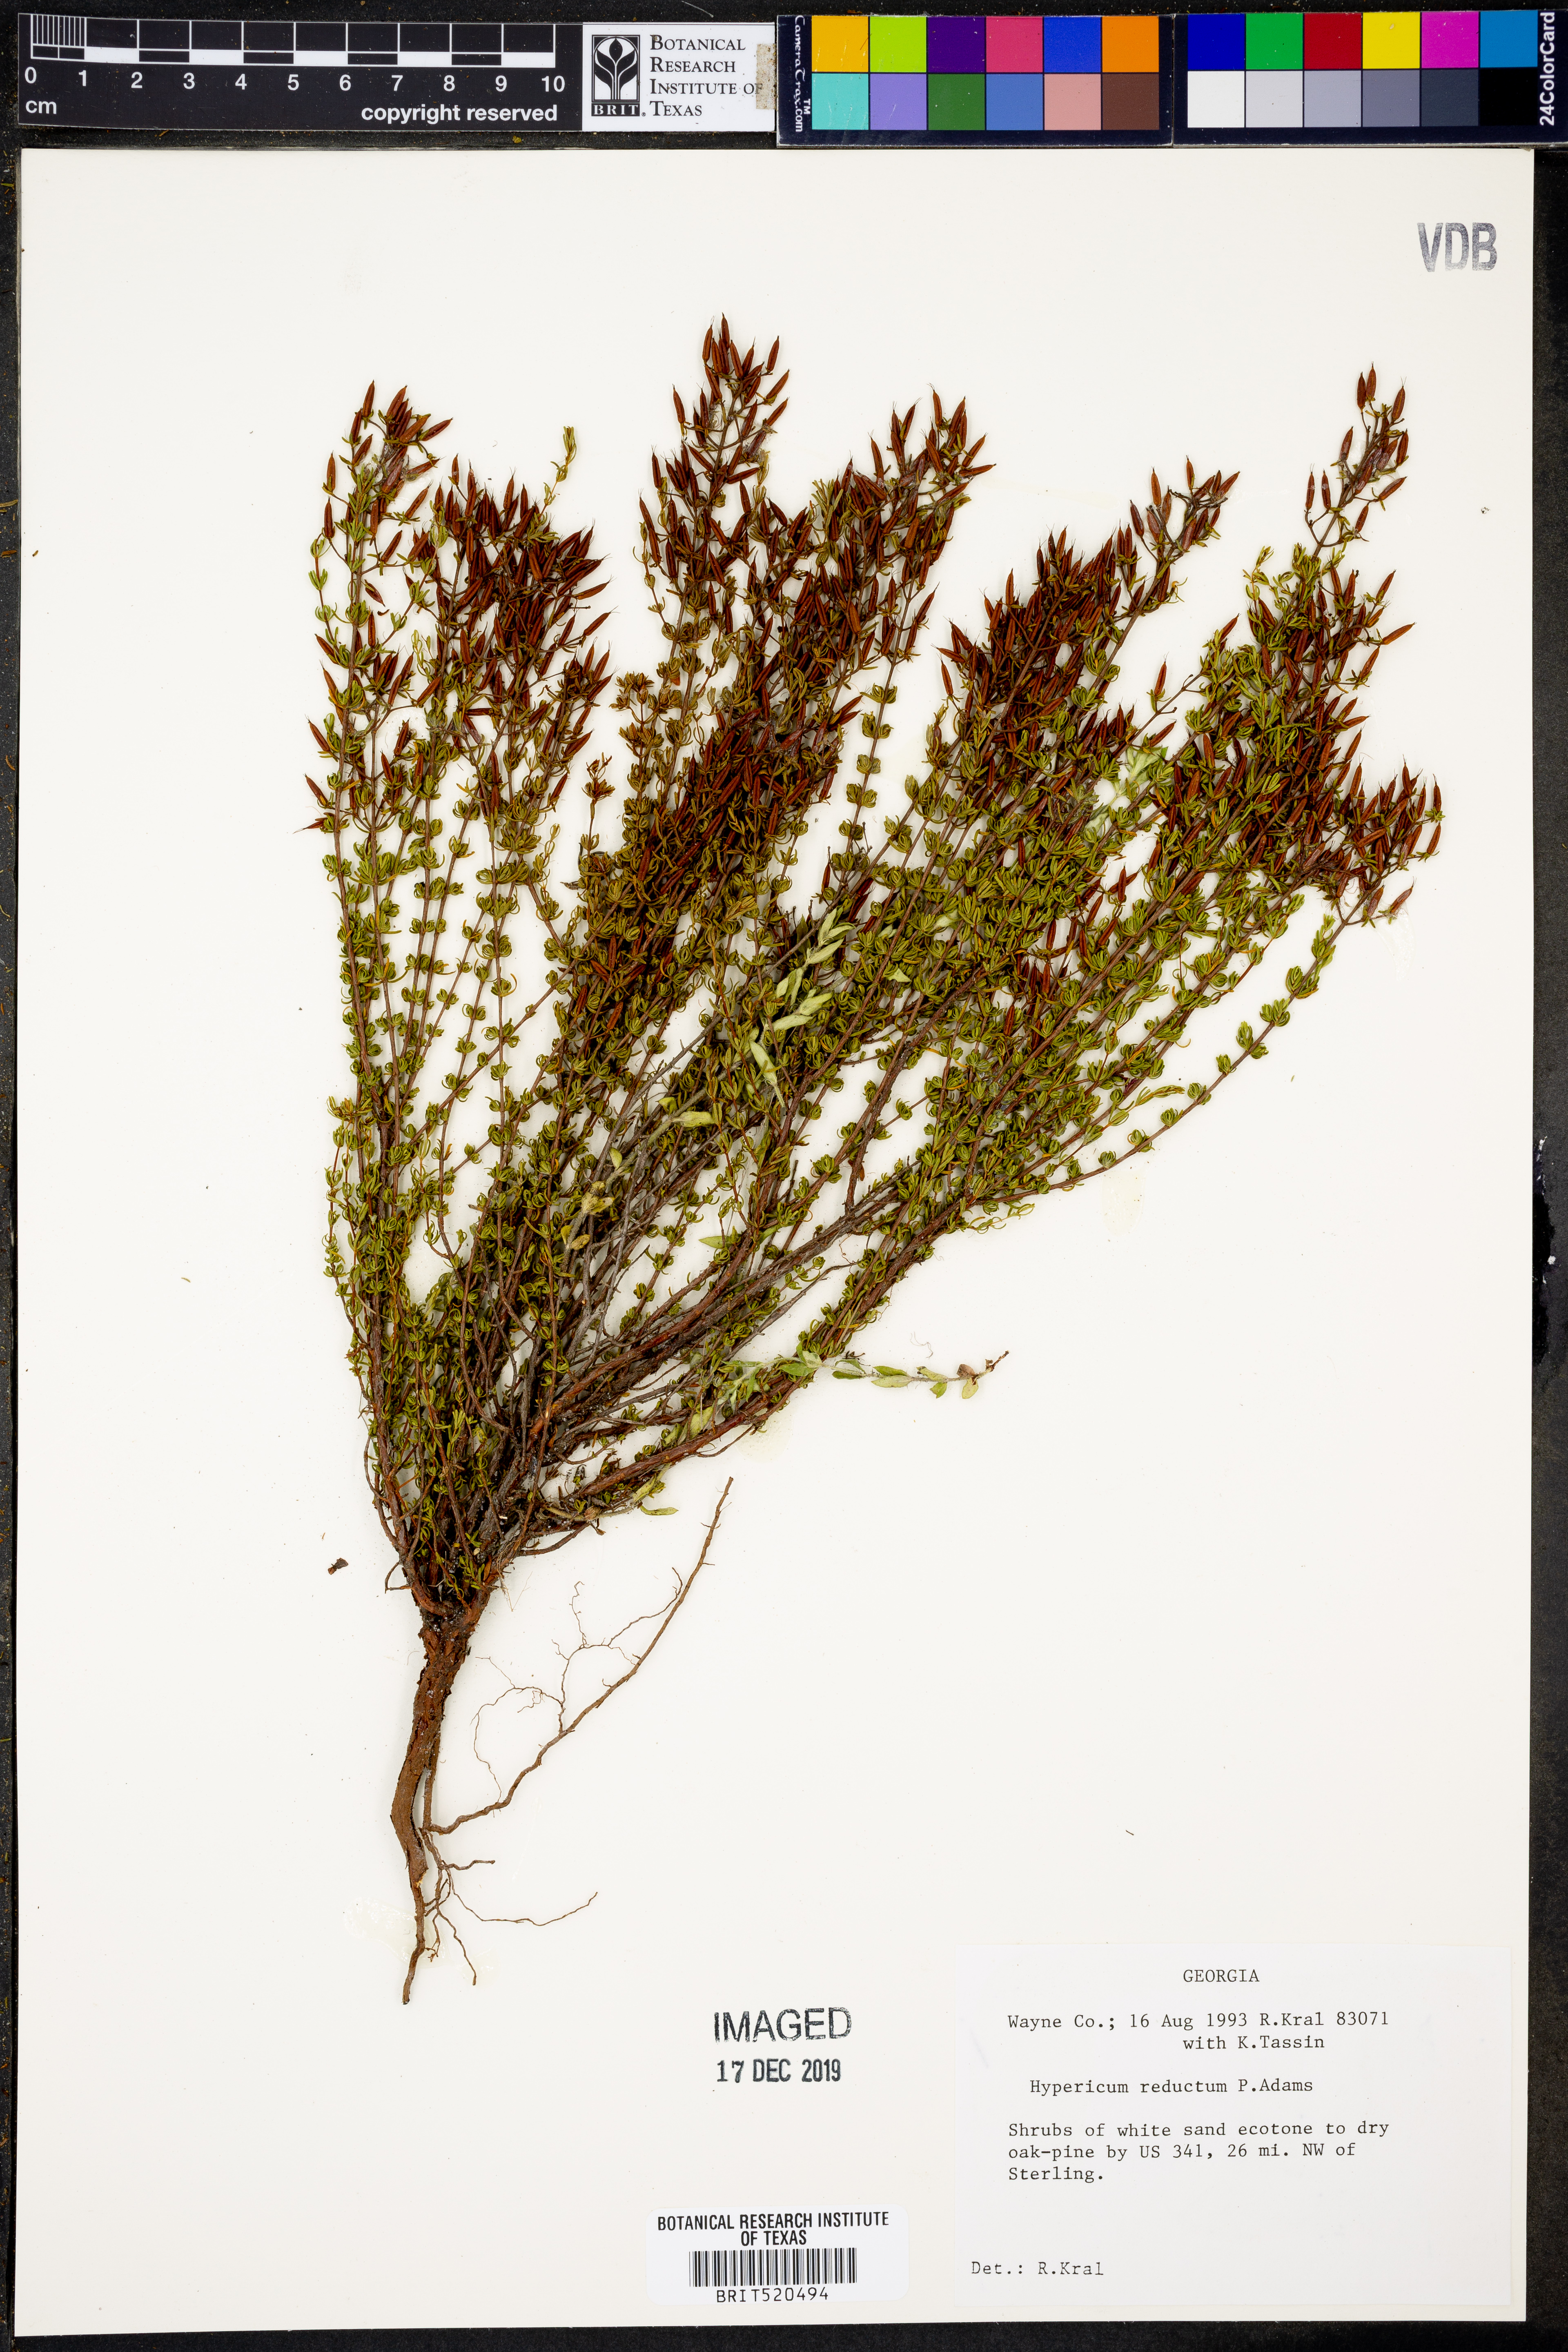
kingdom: Plantae
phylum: Tracheophyta
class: Magnoliopsida
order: Malpighiales
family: Hypericaceae
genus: Hypericum
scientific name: Hypericum tenuifolium
